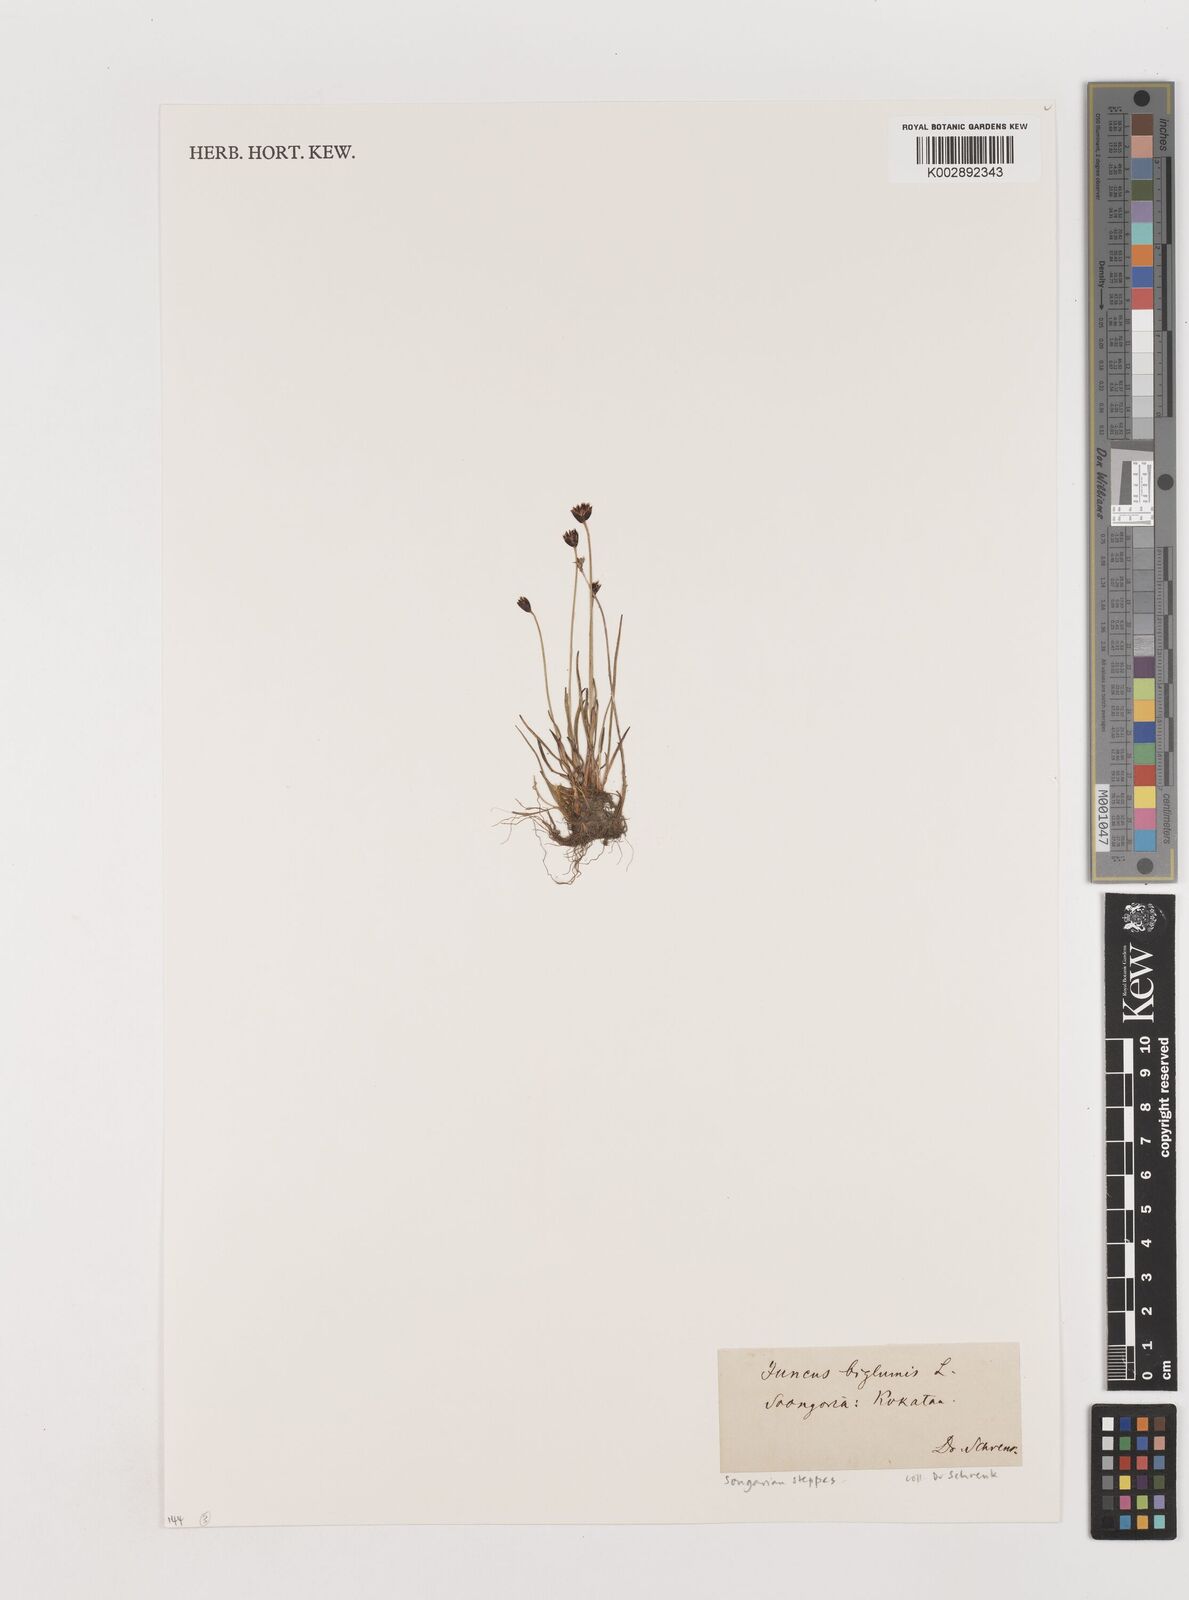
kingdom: Plantae
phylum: Tracheophyta
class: Liliopsida
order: Poales
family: Juncaceae
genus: Juncus
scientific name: Juncus biglumis
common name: Two-flowered rush
